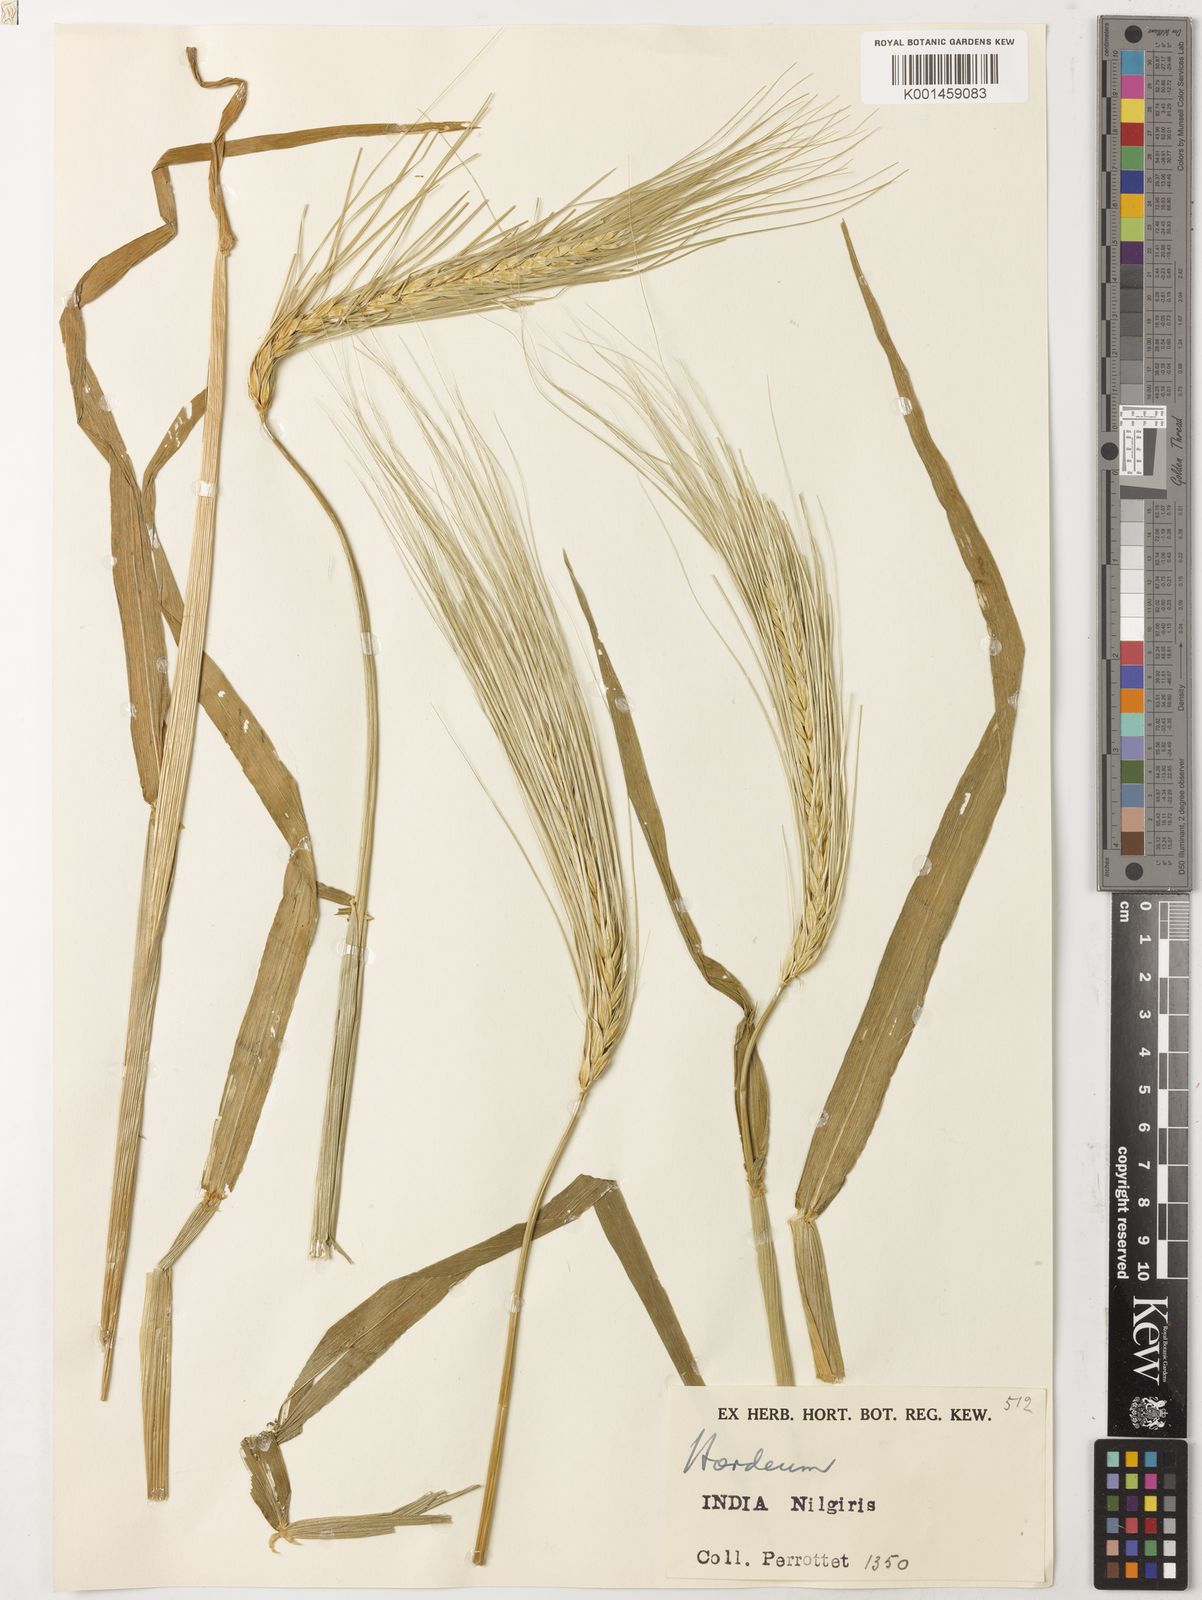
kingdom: Plantae
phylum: Tracheophyta
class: Liliopsida
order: Poales
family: Poaceae
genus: Hordeum
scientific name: Hordeum vulgare
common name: Common barley
